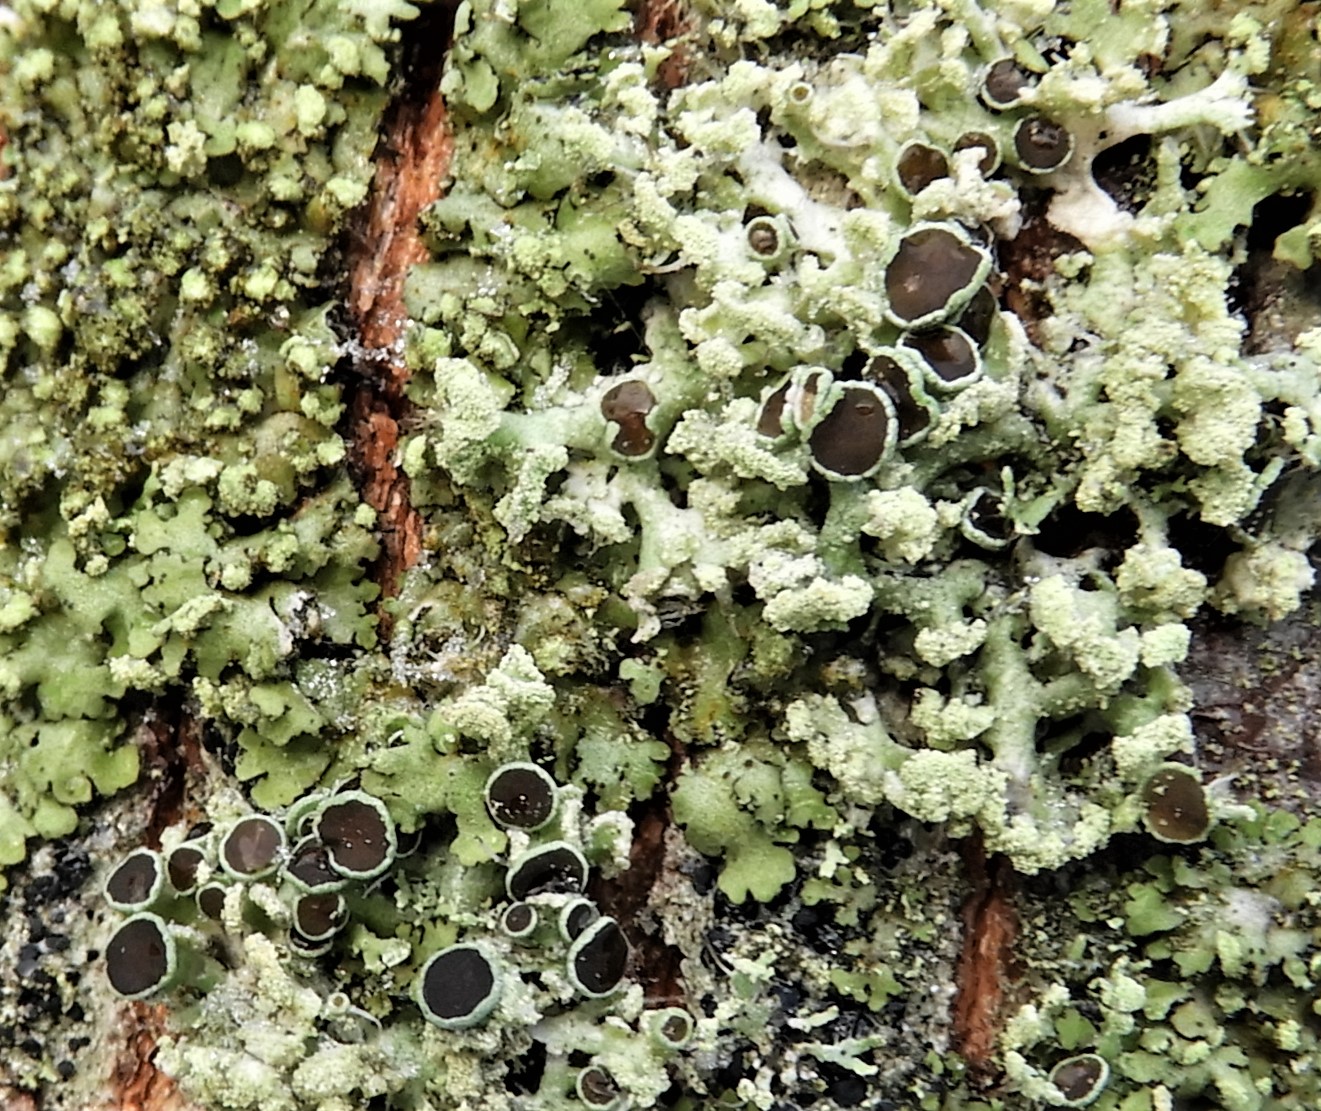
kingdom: Fungi
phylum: Ascomycota
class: Lecanoromycetes
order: Caliciales
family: Physciaceae
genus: Physcia
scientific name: Physcia tenella
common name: spæd rosetlav
